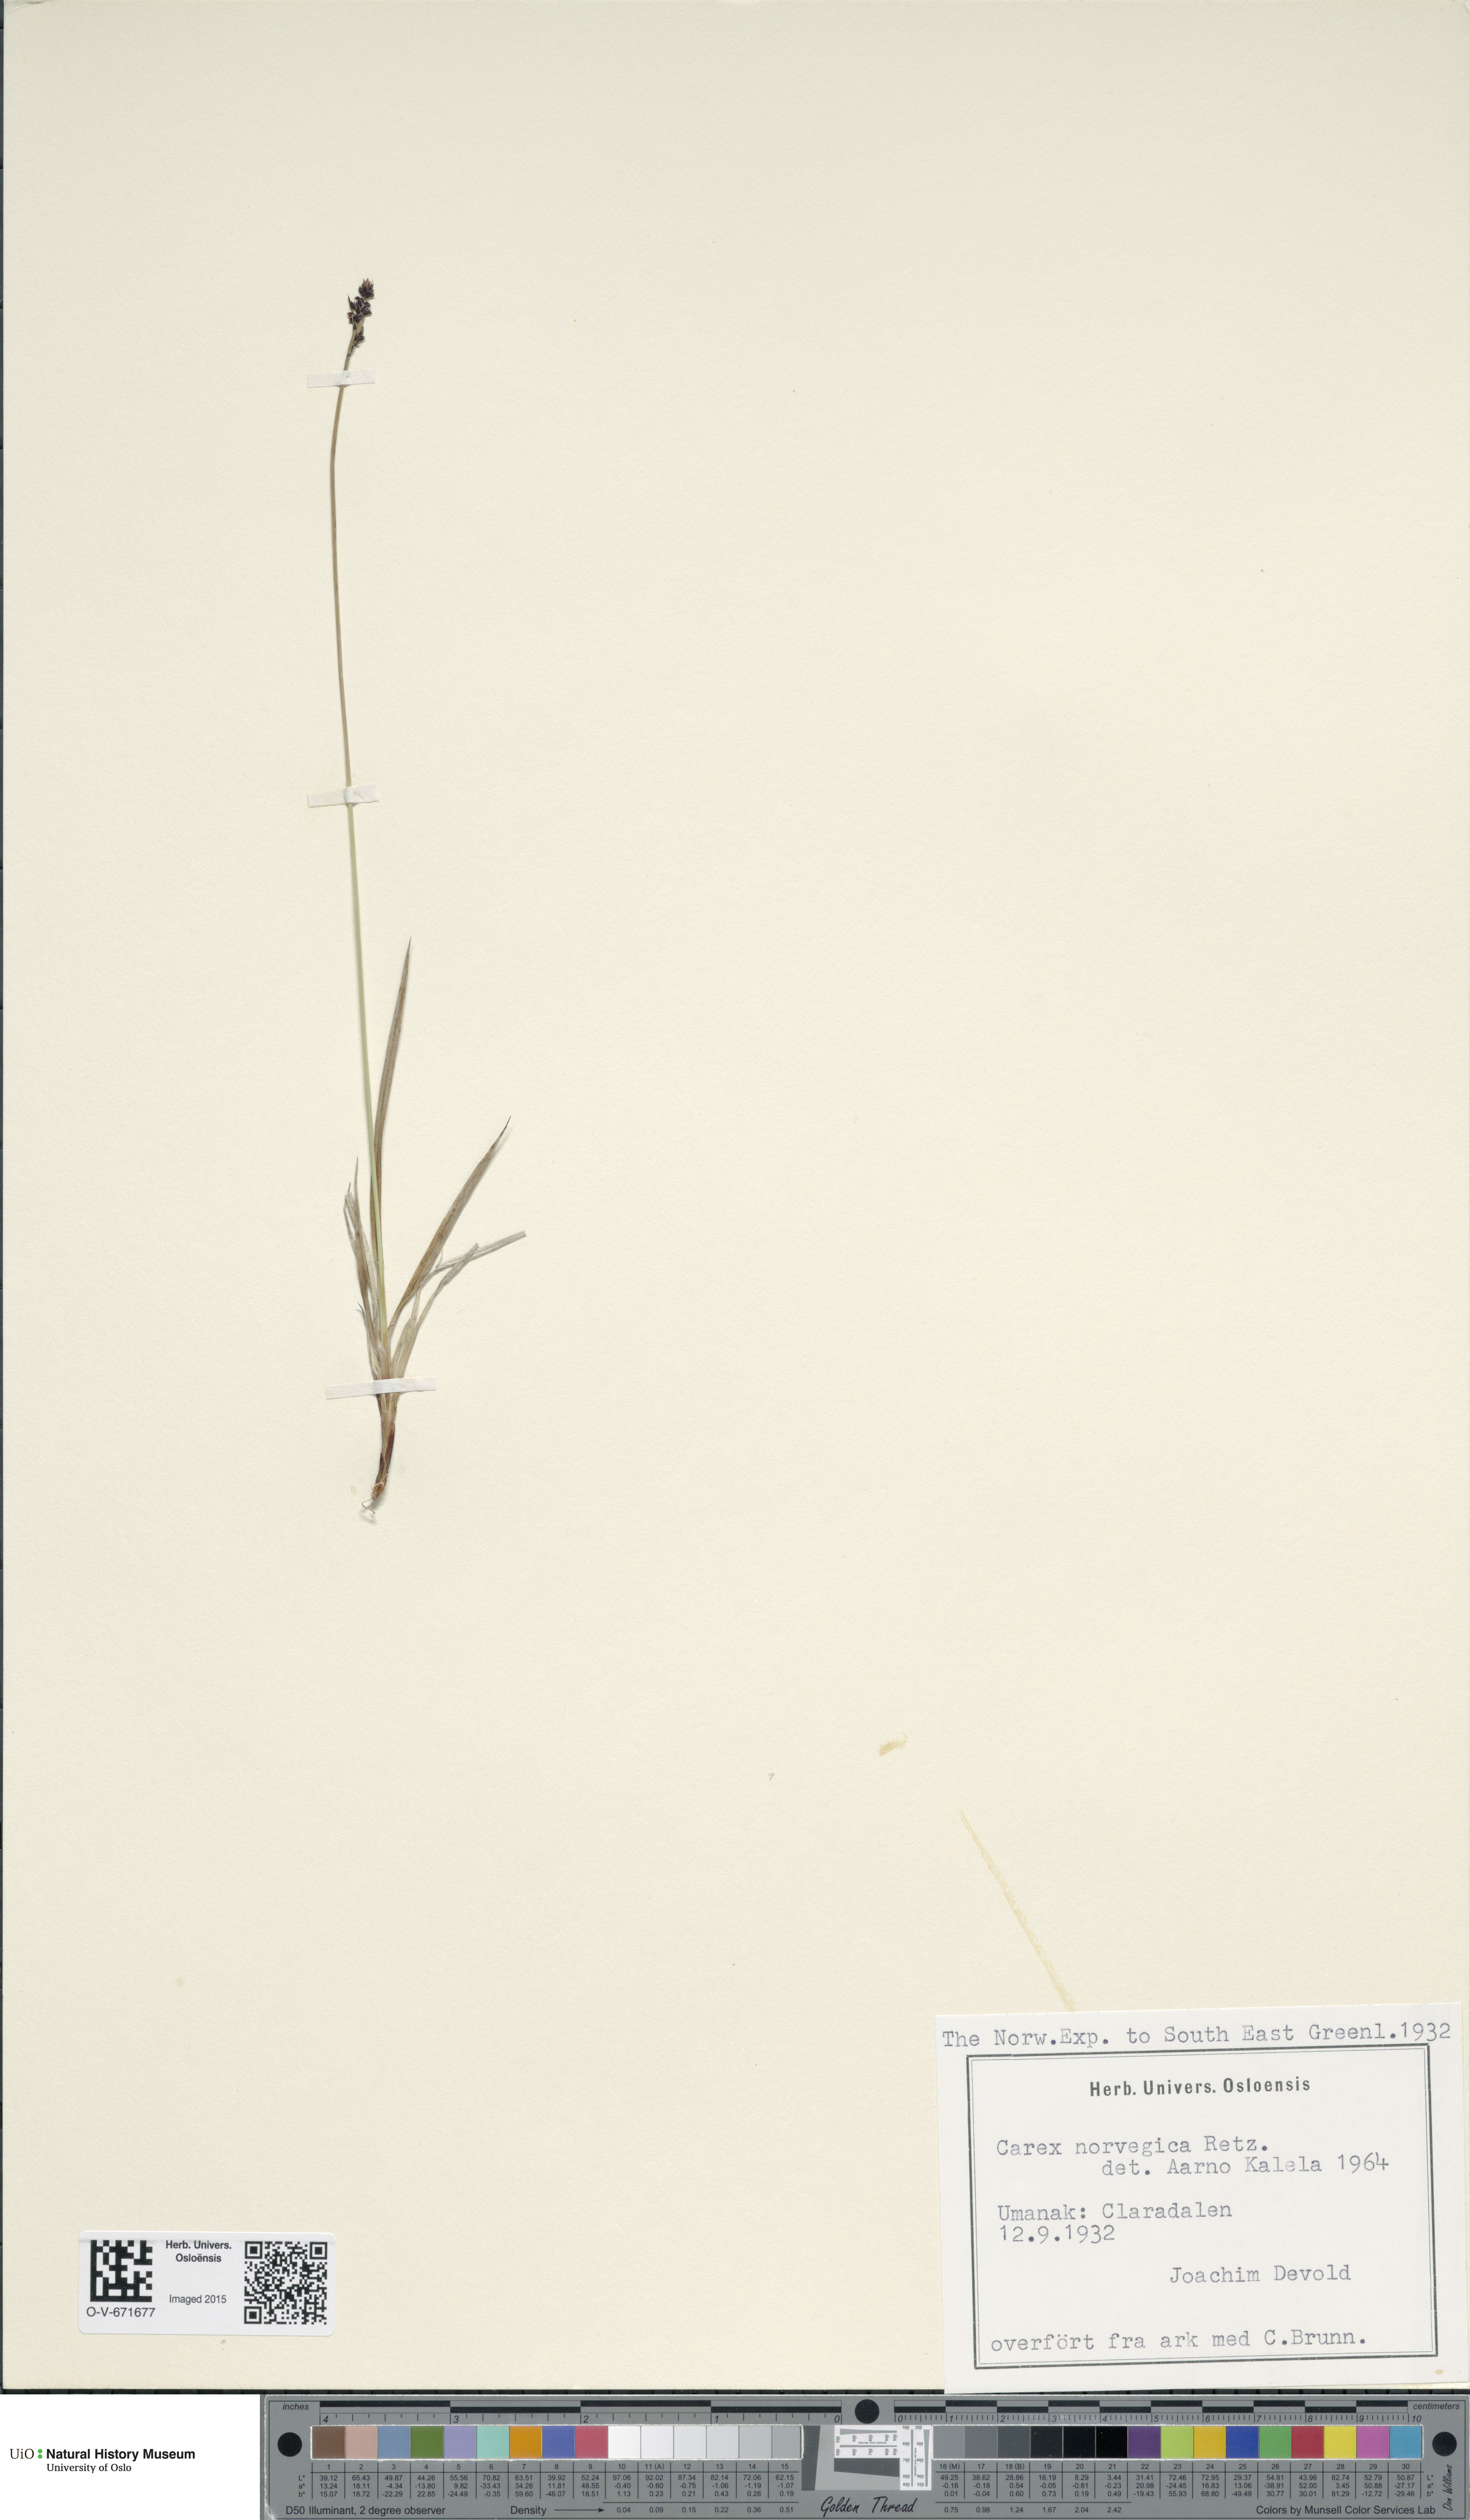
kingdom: Plantae
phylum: Tracheophyta
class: Liliopsida
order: Poales
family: Cyperaceae
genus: Carex
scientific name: Carex norvegica
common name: Close-headed alpine-sedge
